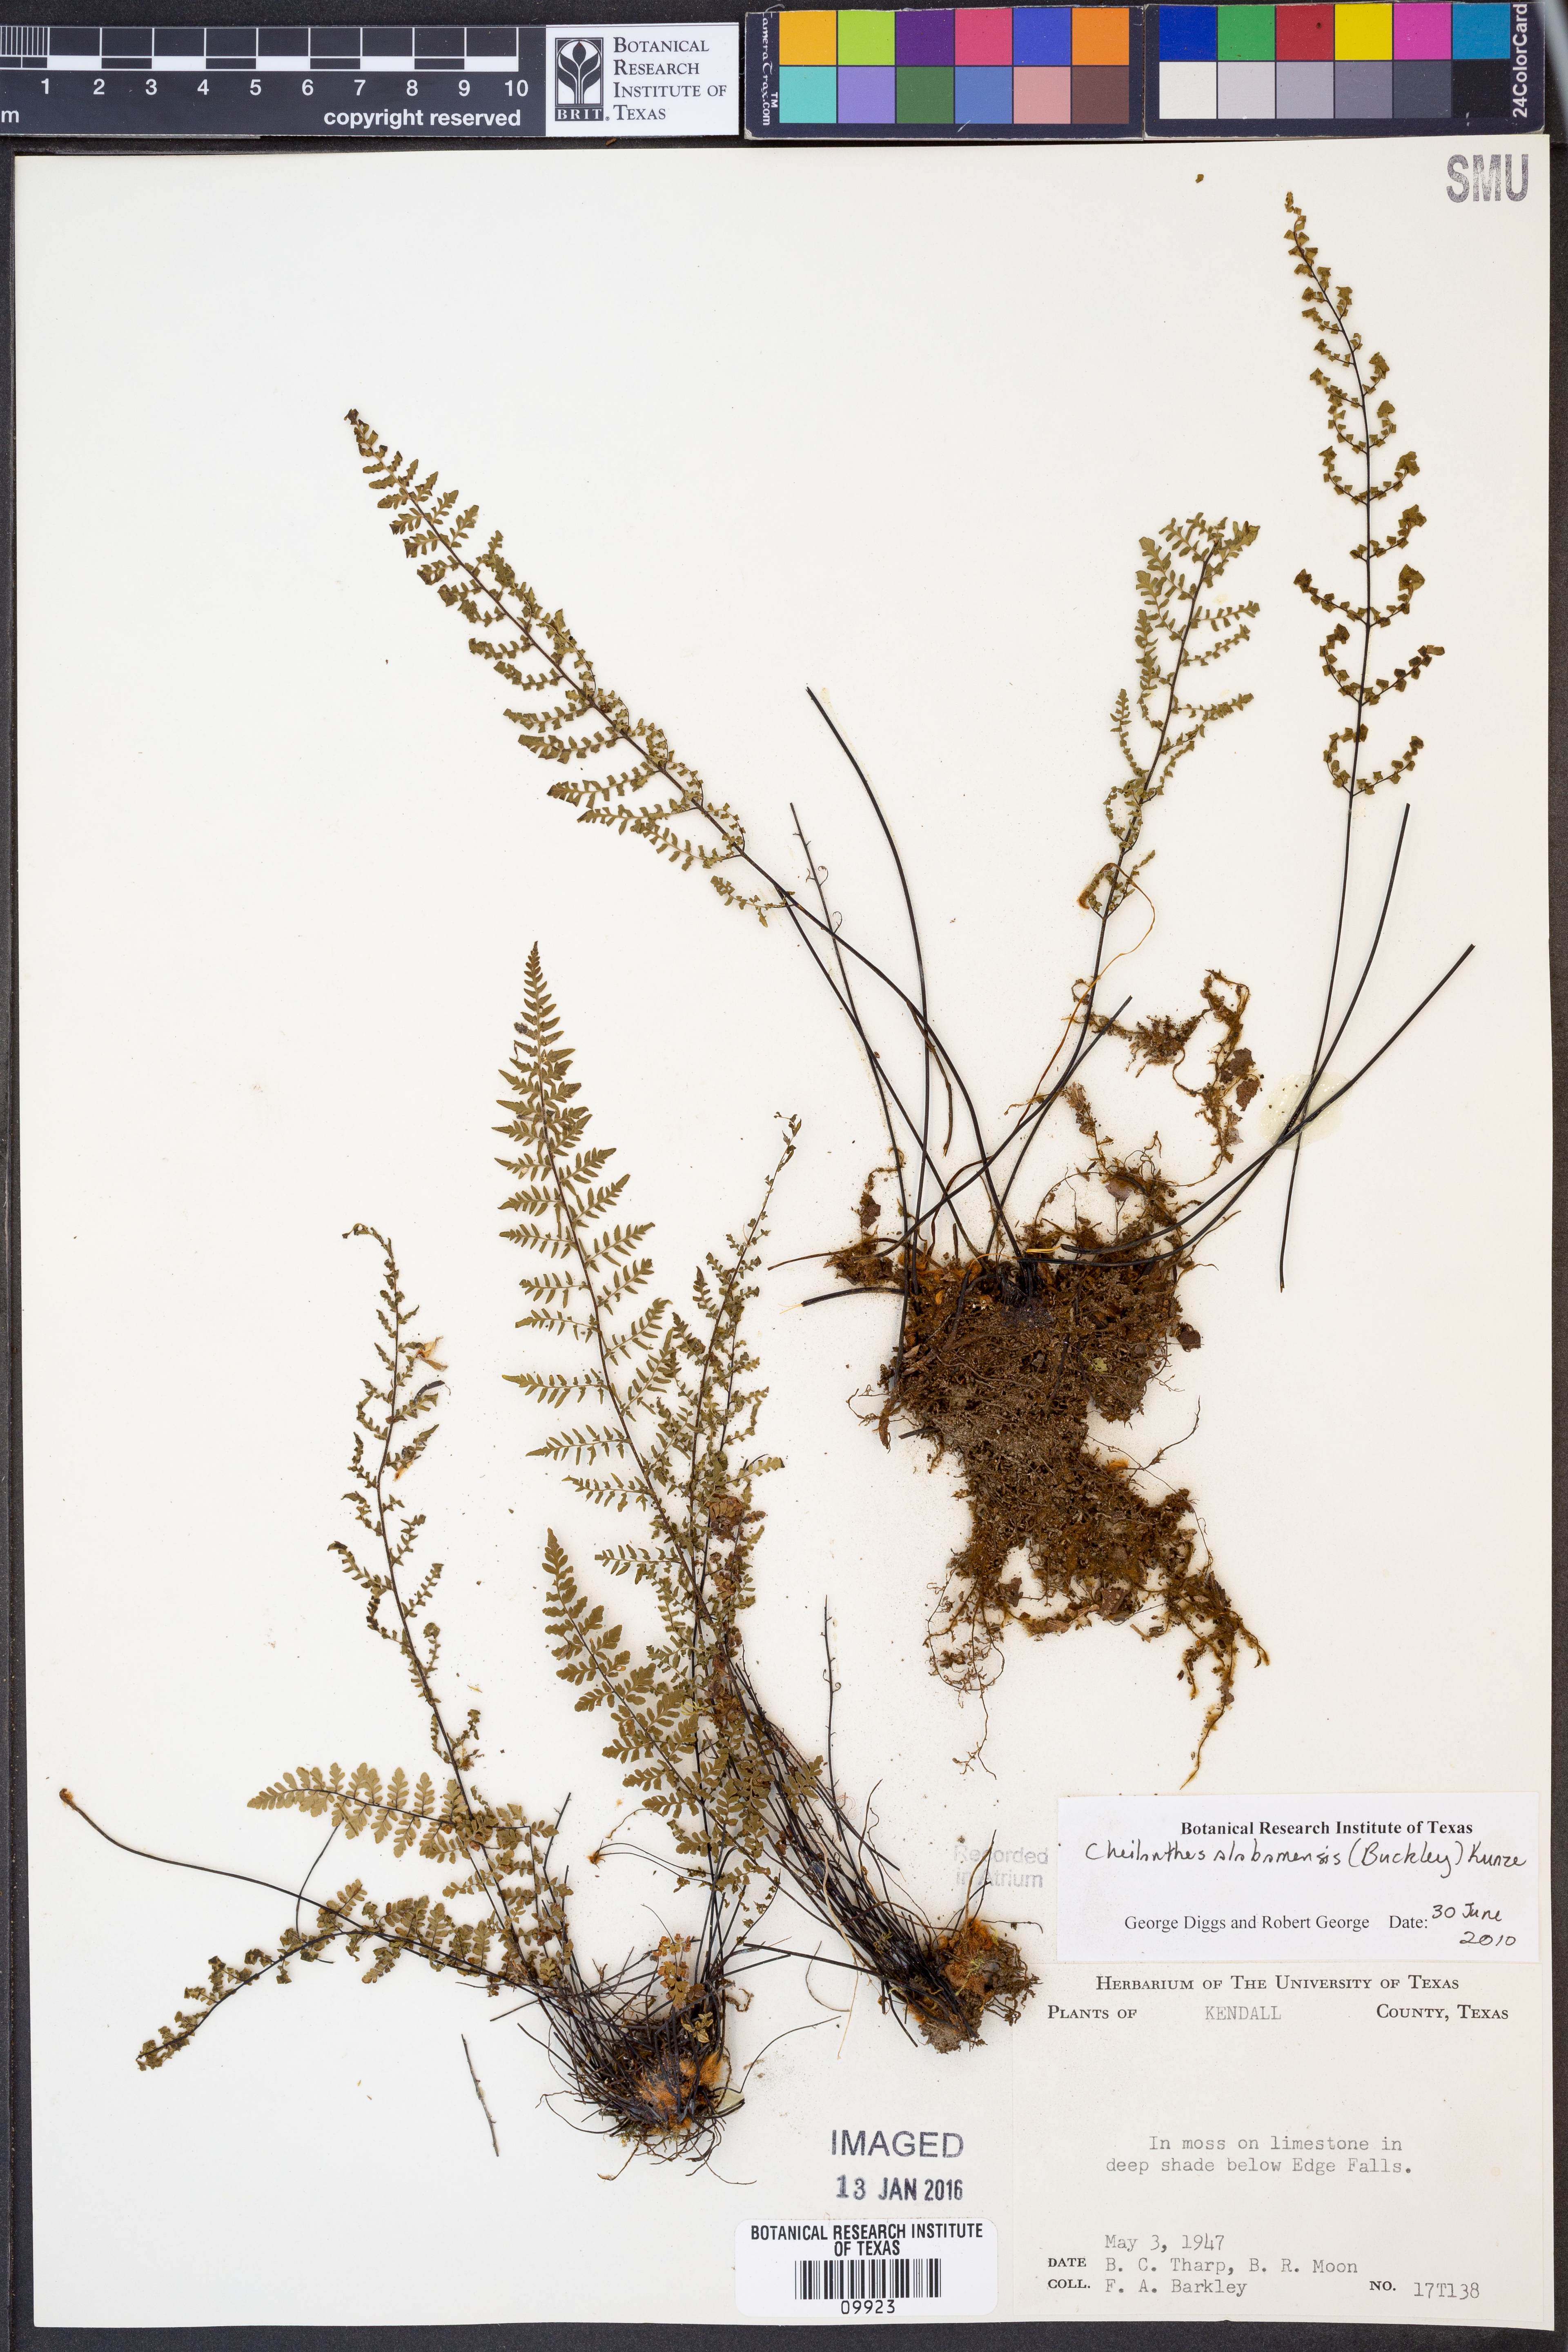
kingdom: Plantae
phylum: Tracheophyta
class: Polypodiopsida
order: Polypodiales
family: Pteridaceae
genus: Myriopteris
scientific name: Myriopteris alabamensis
